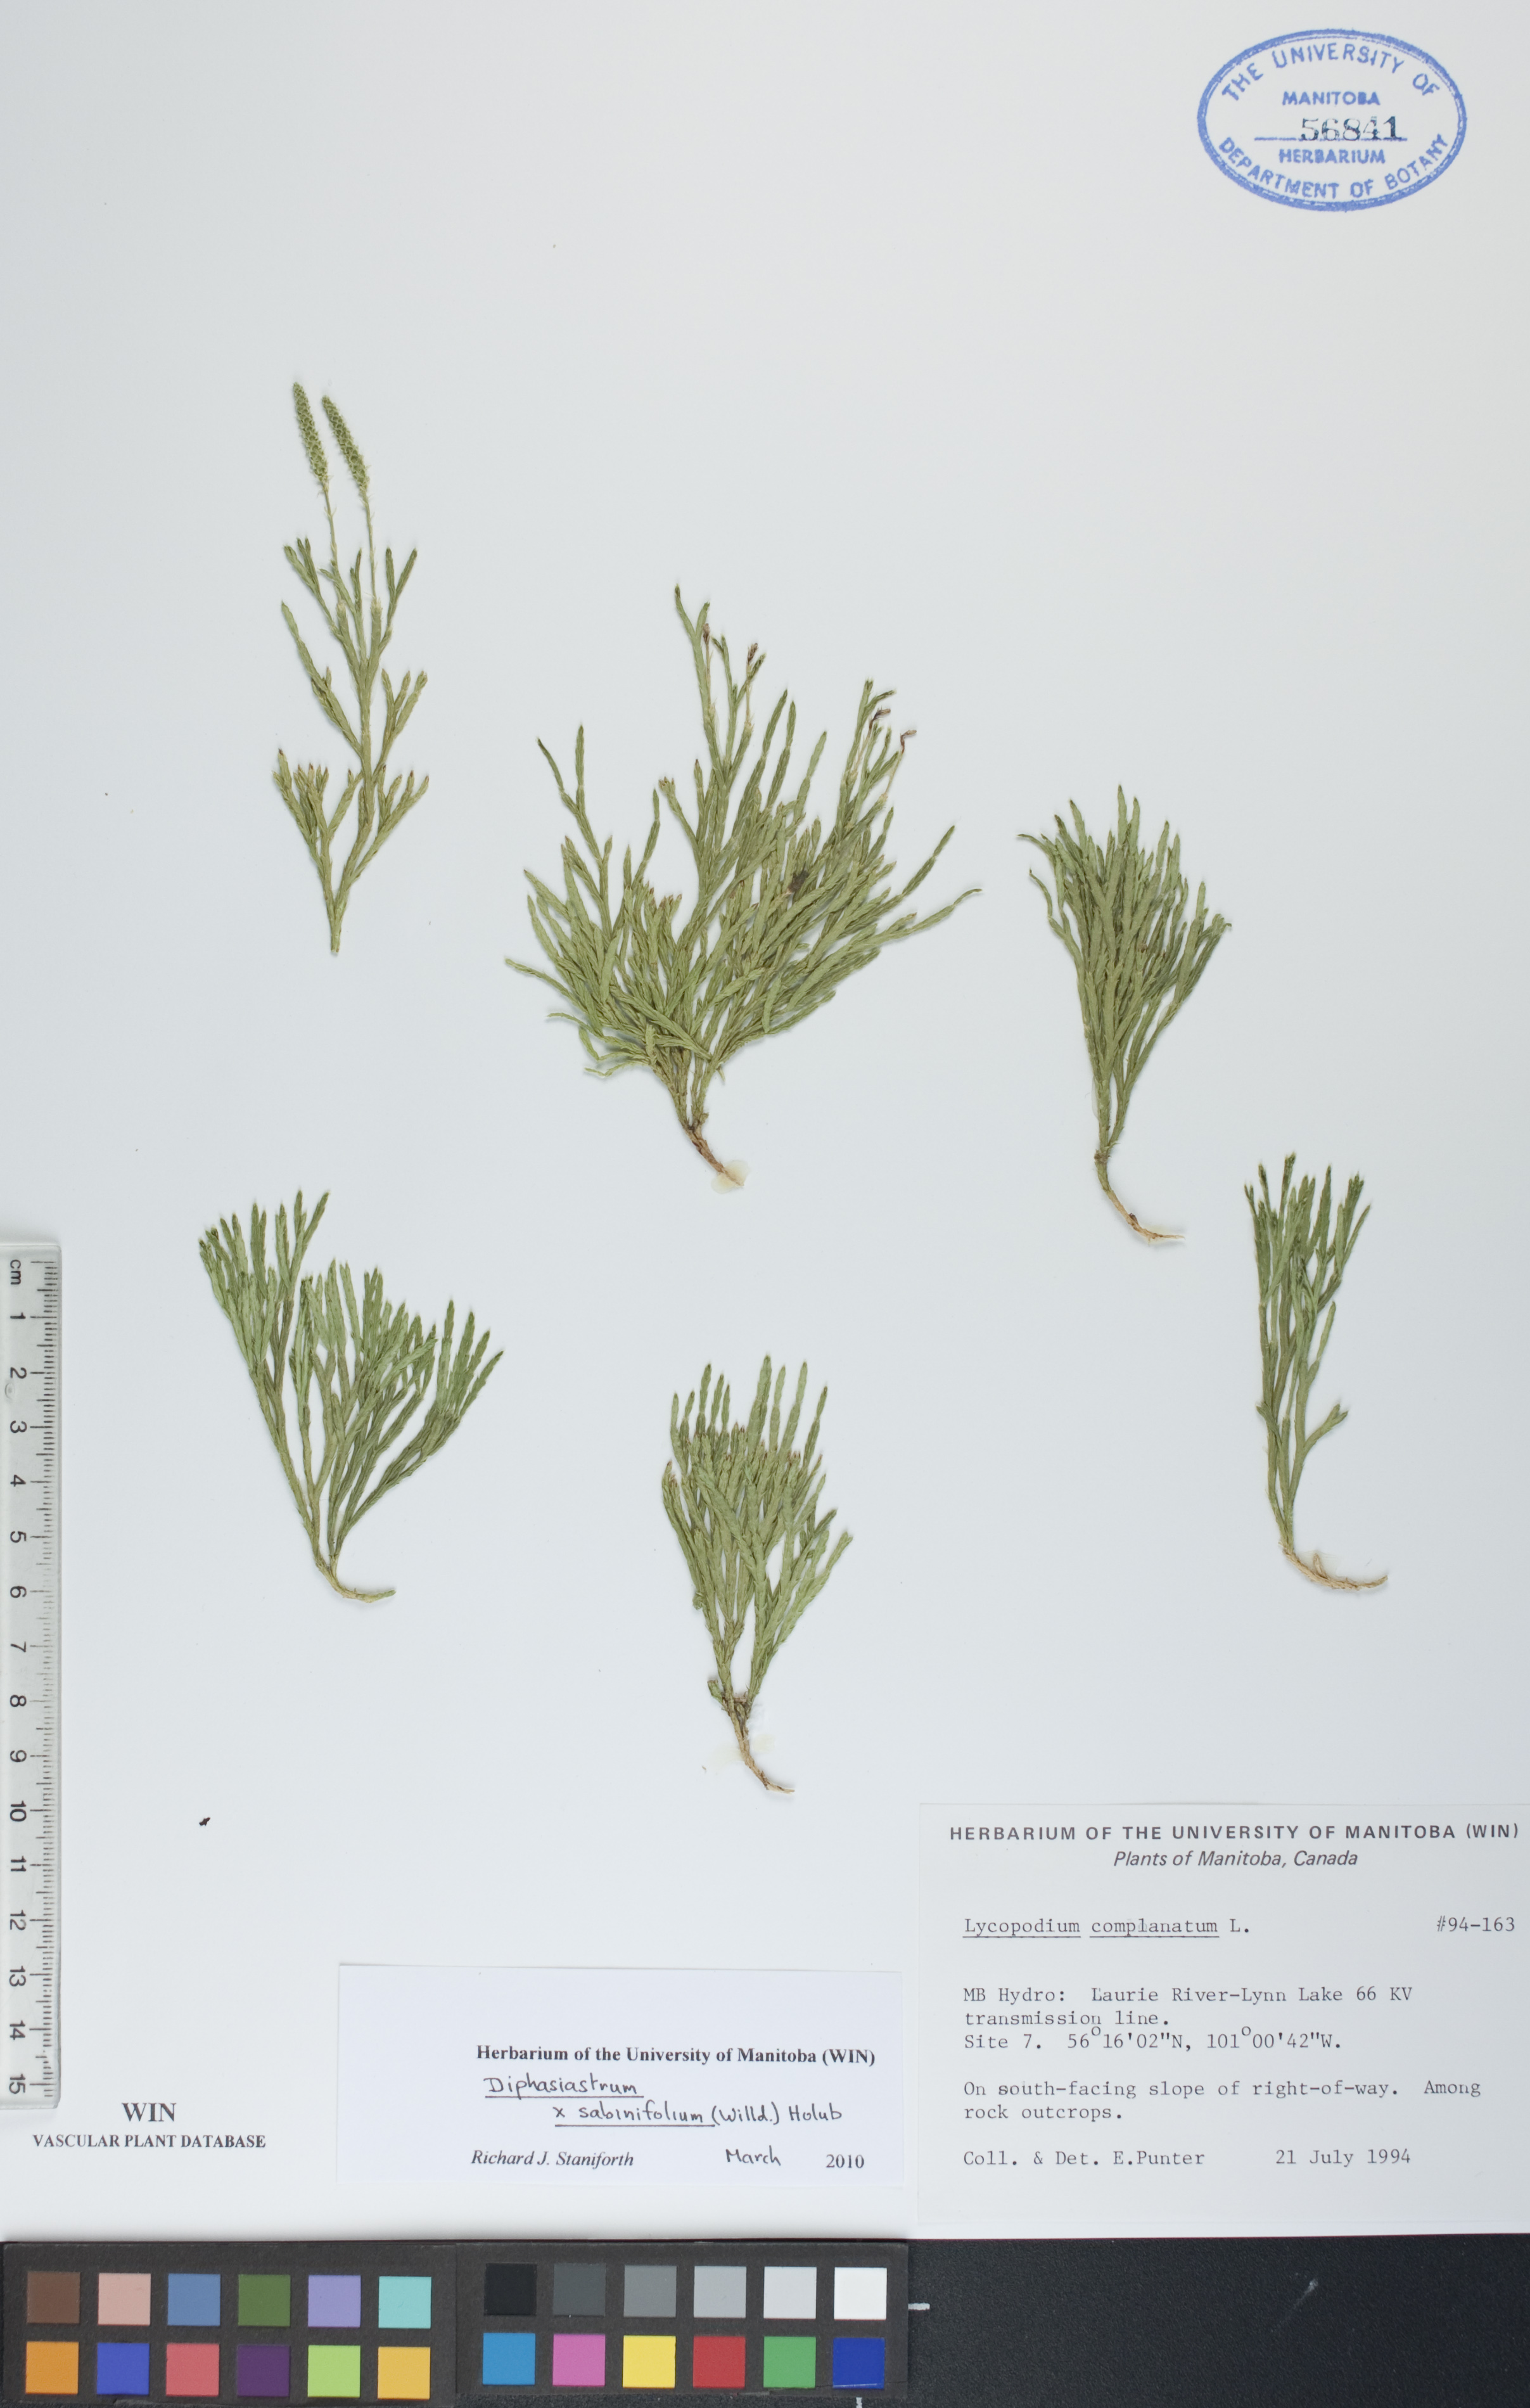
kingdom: Plantae
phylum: Tracheophyta
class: Lycopodiopsida
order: Lycopodiales
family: Lycopodiaceae
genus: Diphasiastrum
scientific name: Diphasiastrum sabinifolium
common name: Juniper clubmoss
